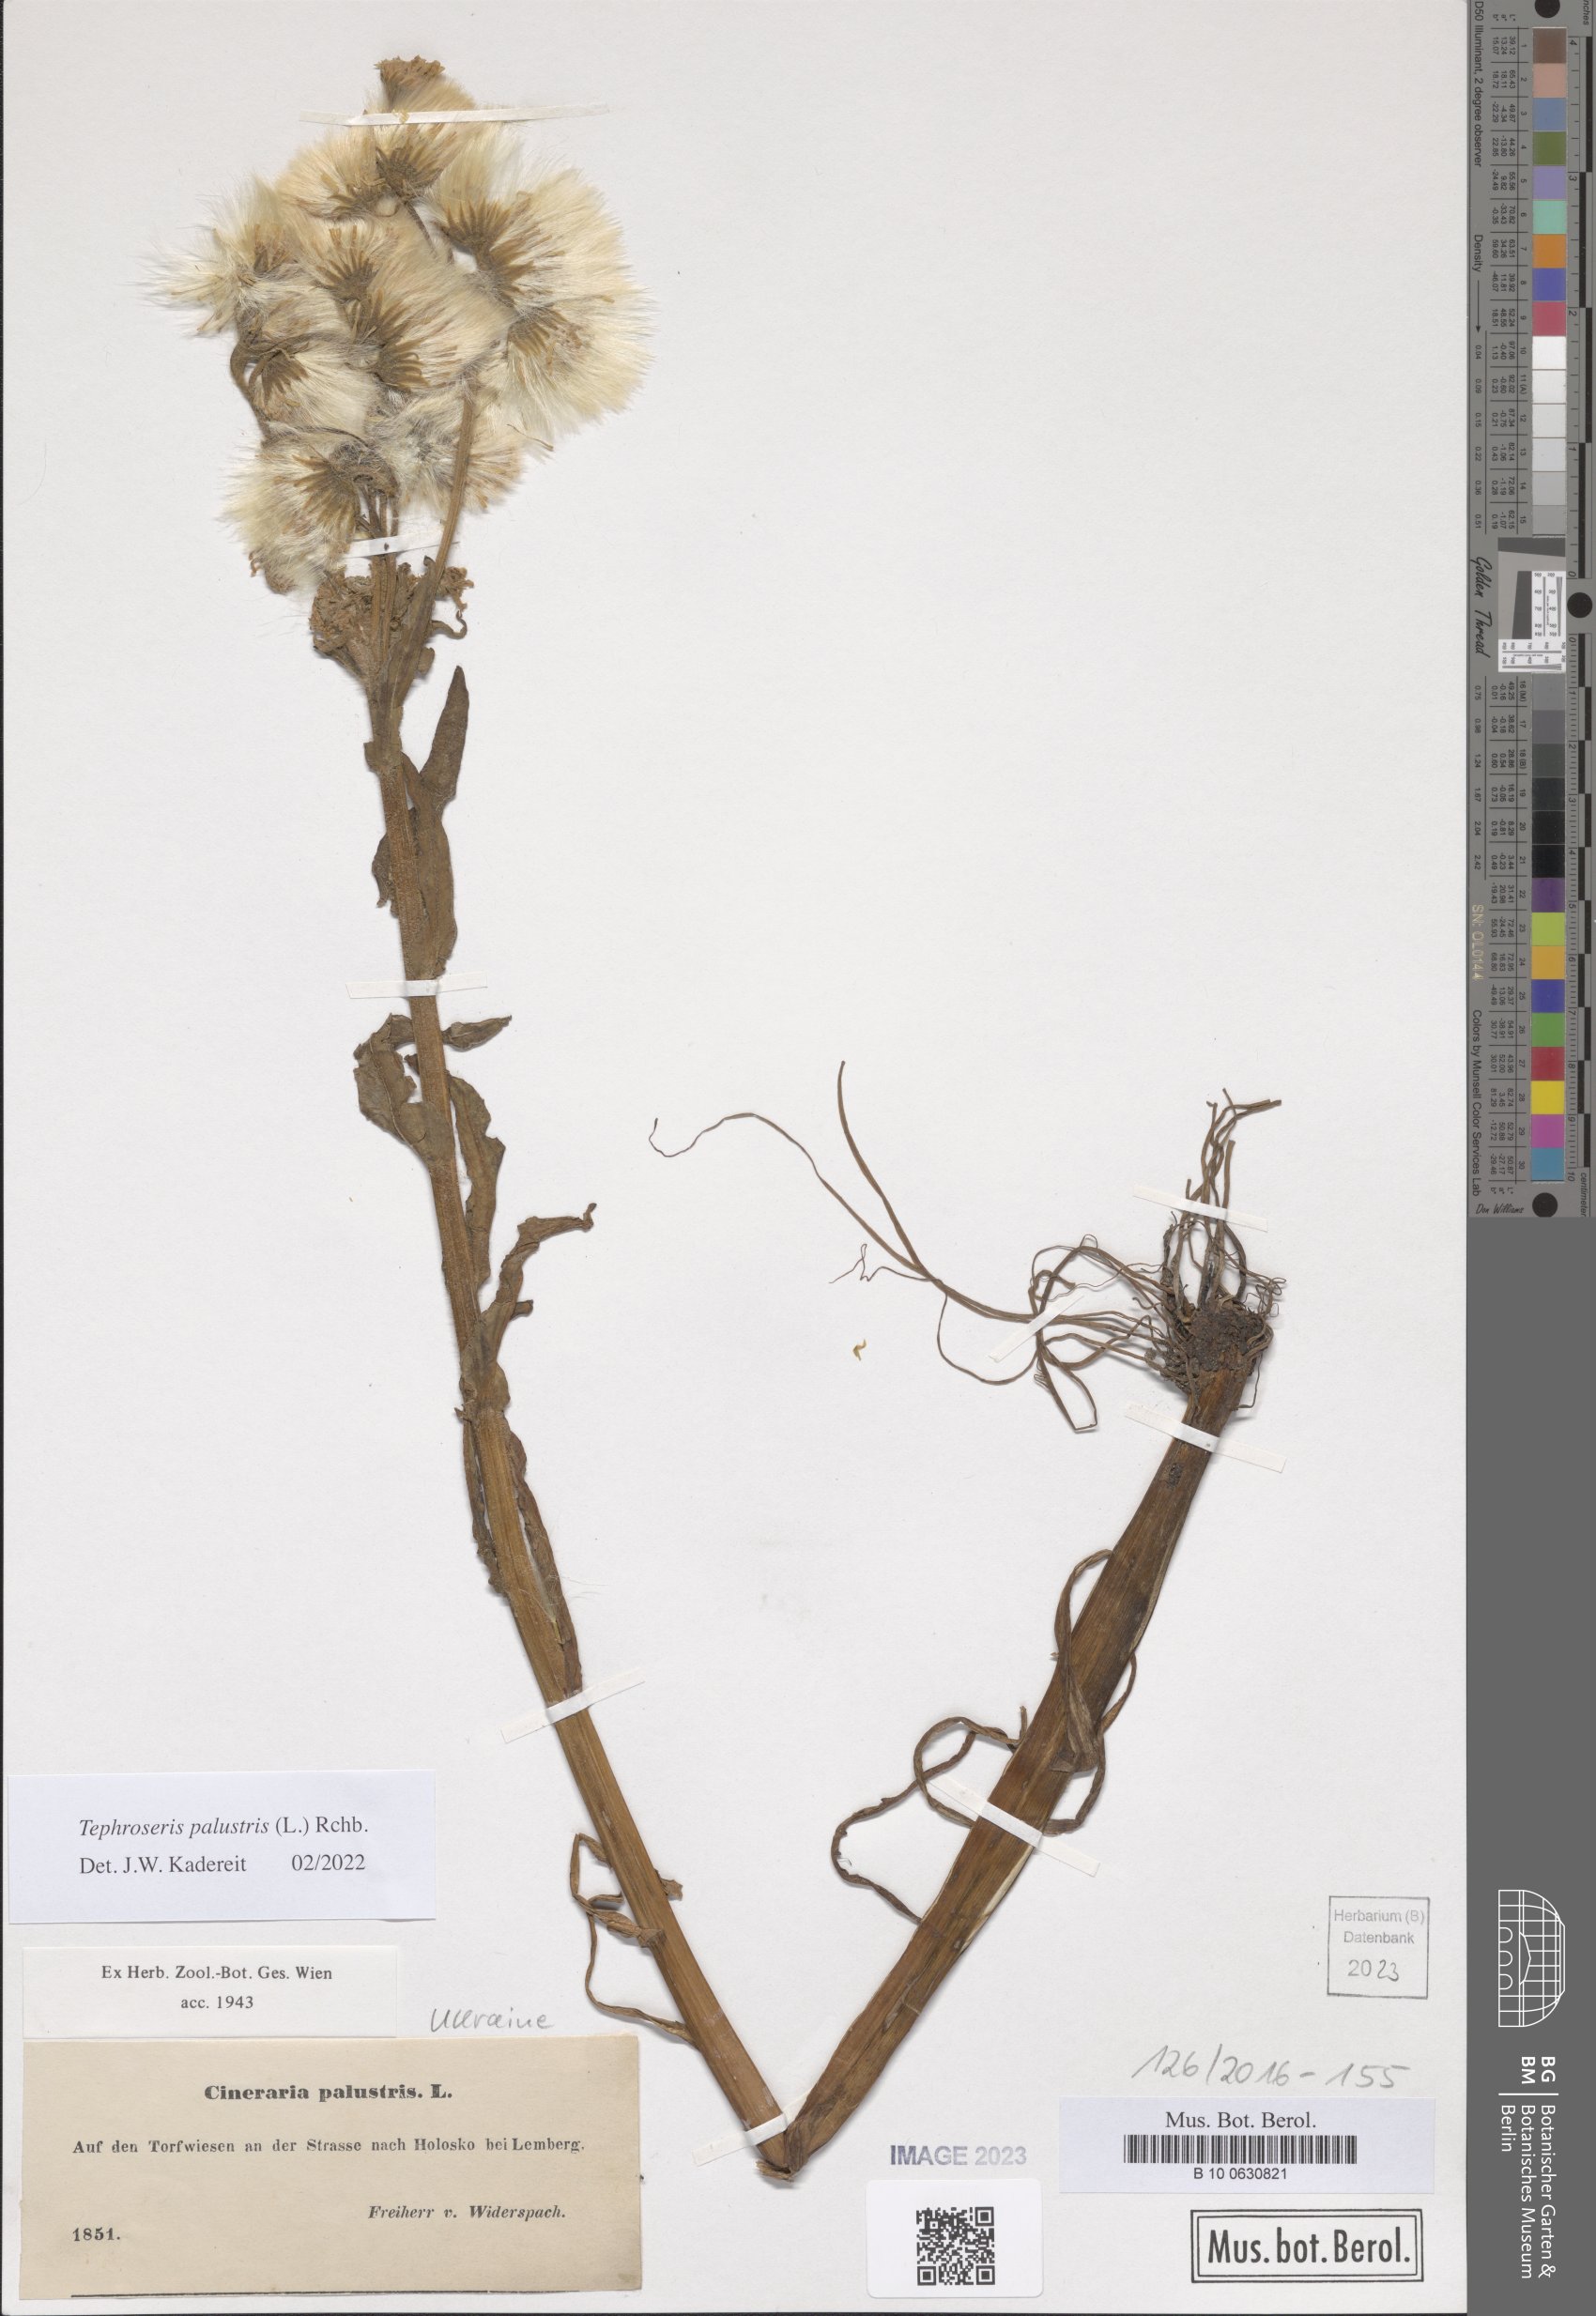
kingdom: Plantae
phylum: Tracheophyta
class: Magnoliopsida
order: Asterales
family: Asteraceae
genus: Tephroseris
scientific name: Tephroseris palustris
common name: Marsh fleawort
